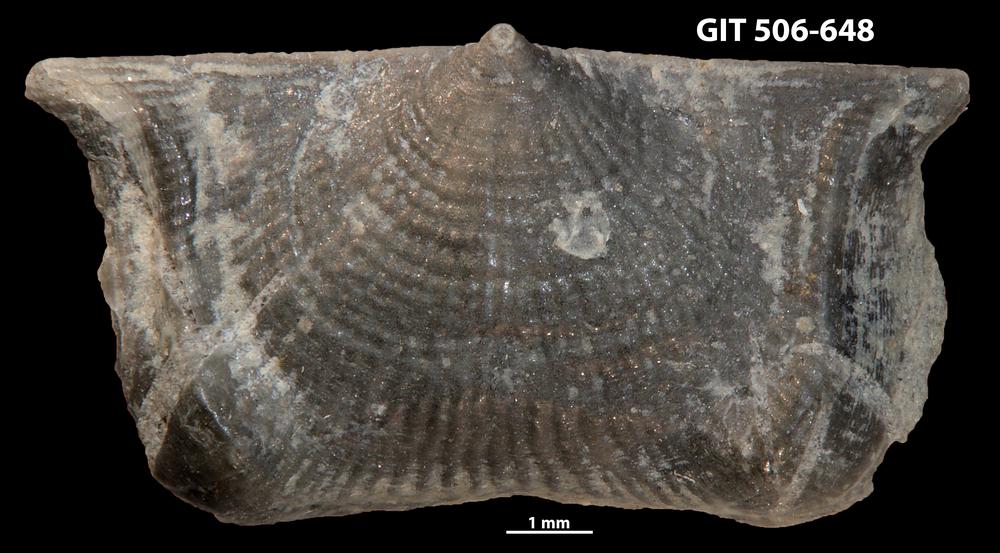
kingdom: Animalia
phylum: Brachiopoda
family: Strophomenidae
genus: Leptaena
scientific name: Leptaena altera
